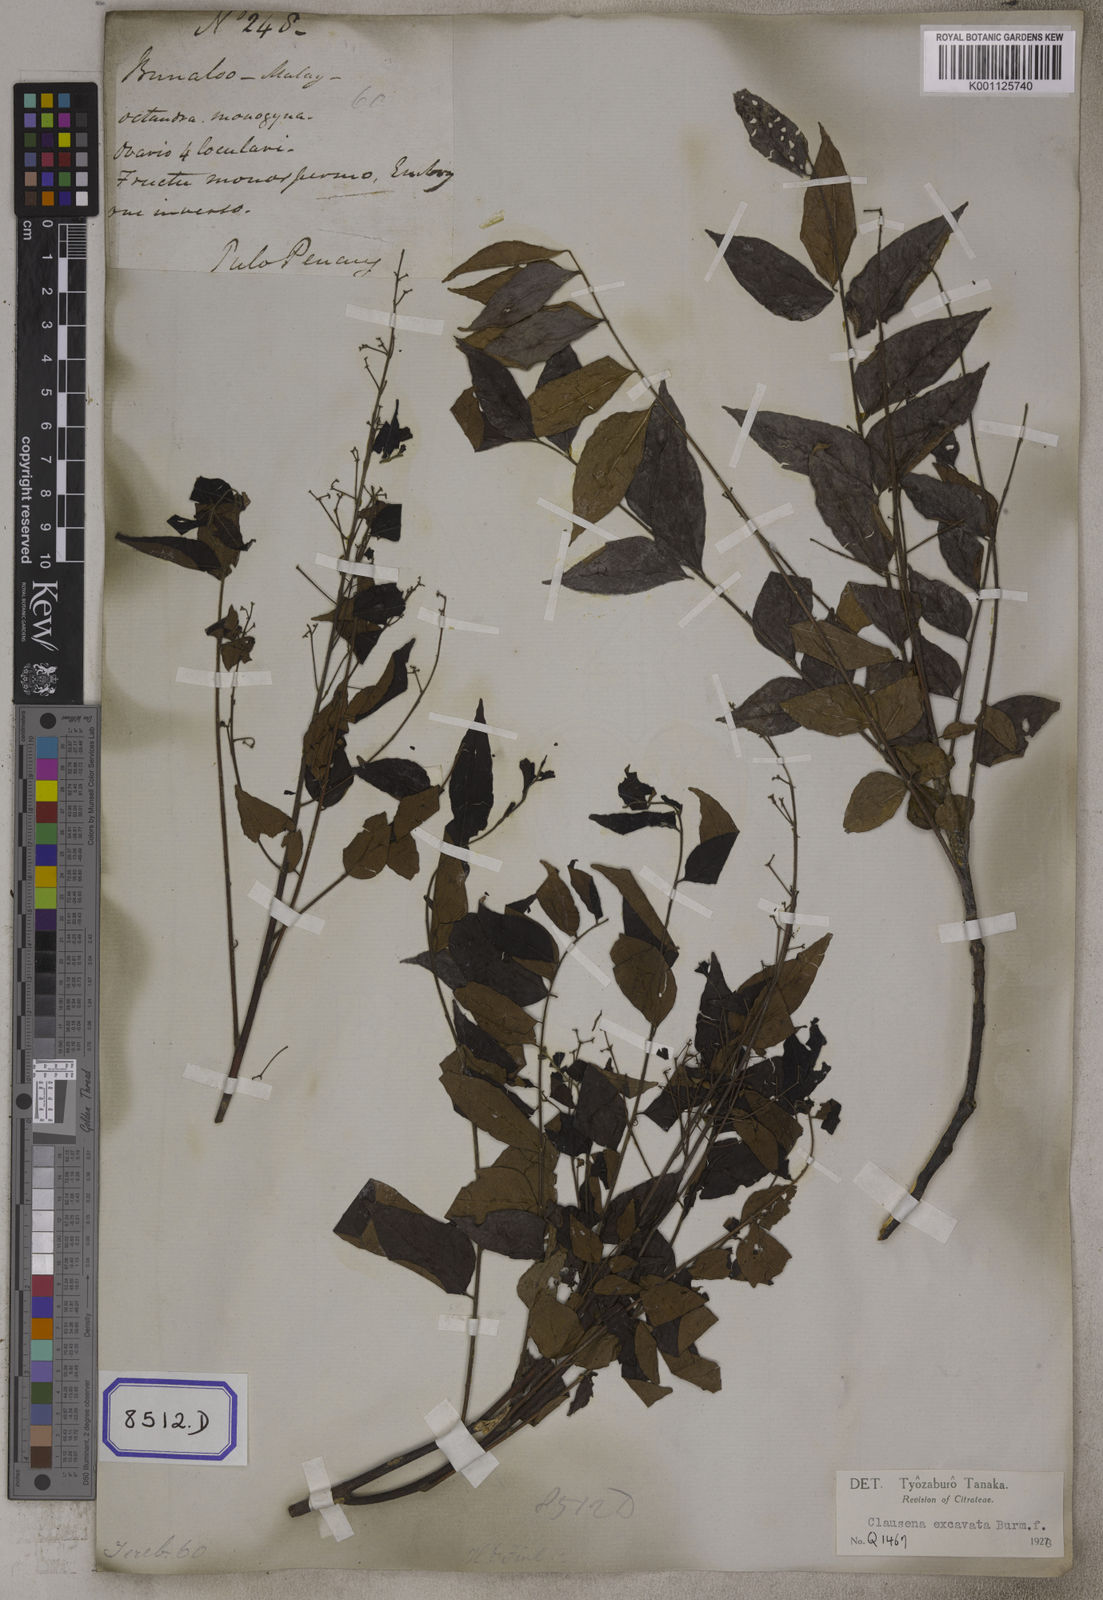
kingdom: Plantae
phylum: Tracheophyta
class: Magnoliopsida
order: Sapindales
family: Rutaceae
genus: Clausena
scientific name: Clausena
